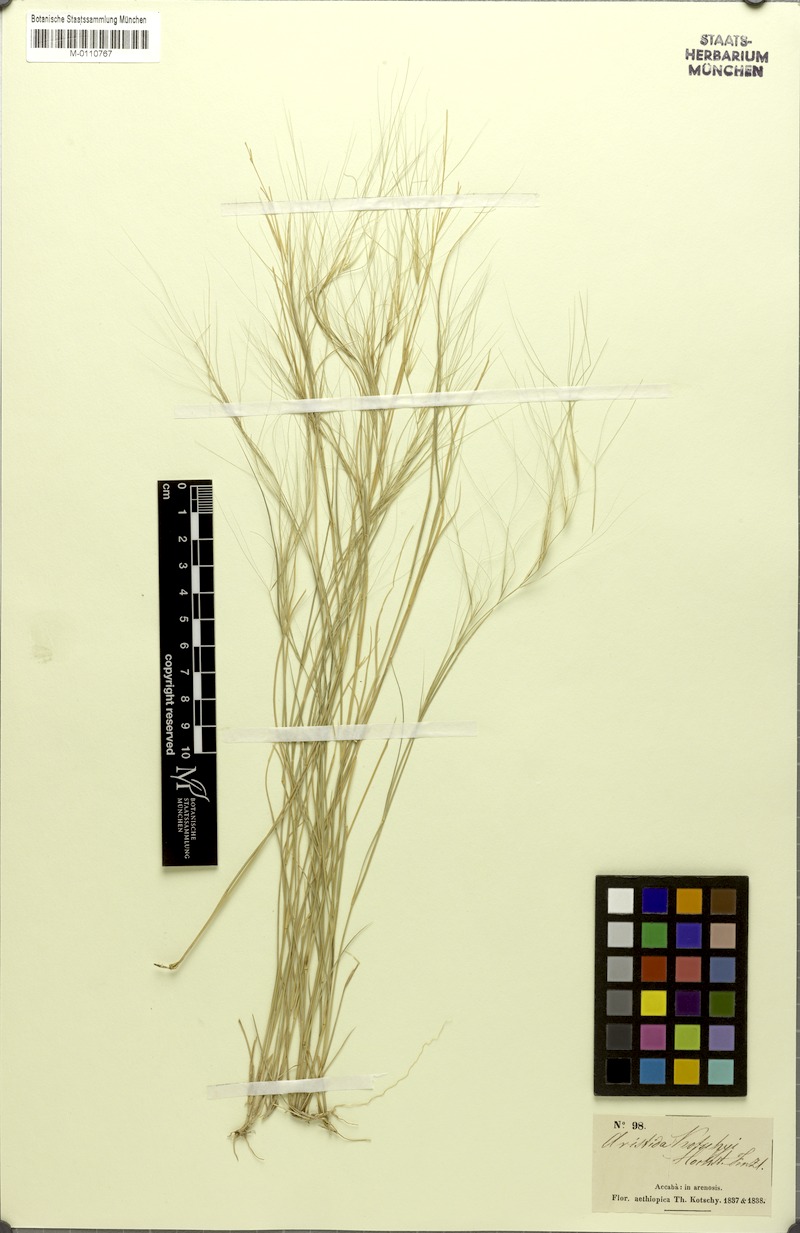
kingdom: Plantae
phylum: Tracheophyta
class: Liliopsida
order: Poales
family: Poaceae
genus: Aristida
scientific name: Aristida funiculata
